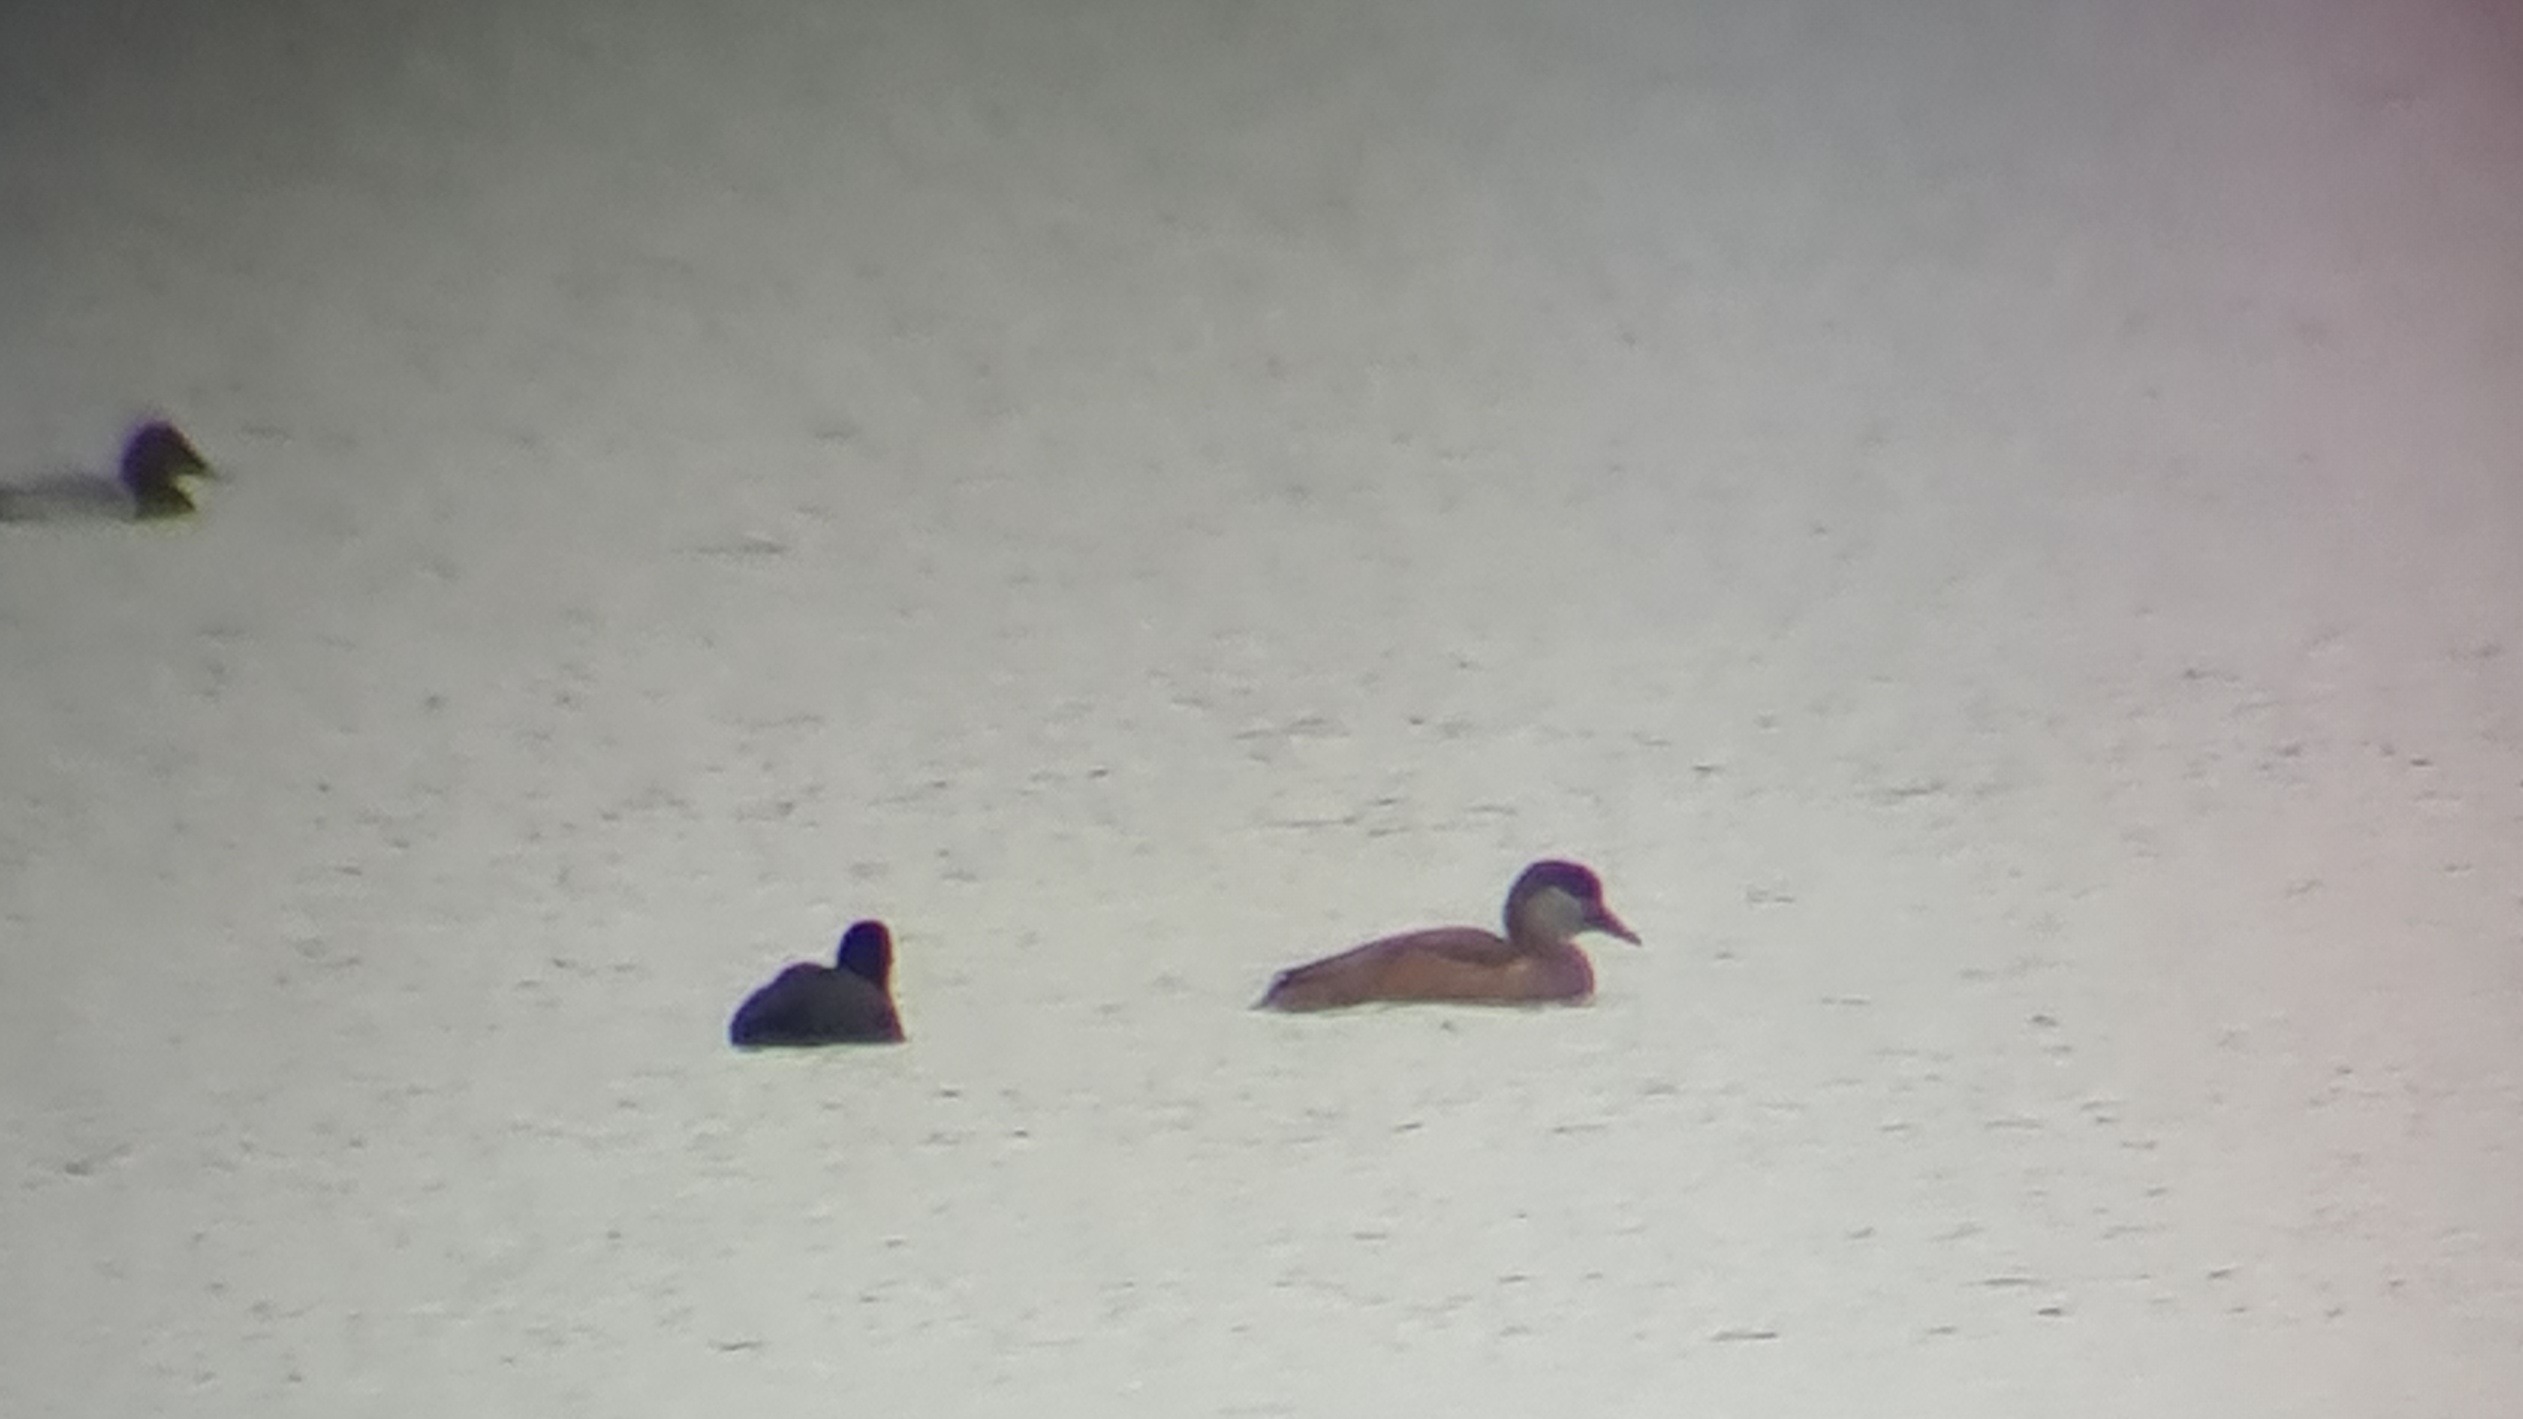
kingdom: Animalia
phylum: Chordata
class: Aves
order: Anseriformes
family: Anatidae
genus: Netta
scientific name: Netta rufina
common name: Rødhovedet and
